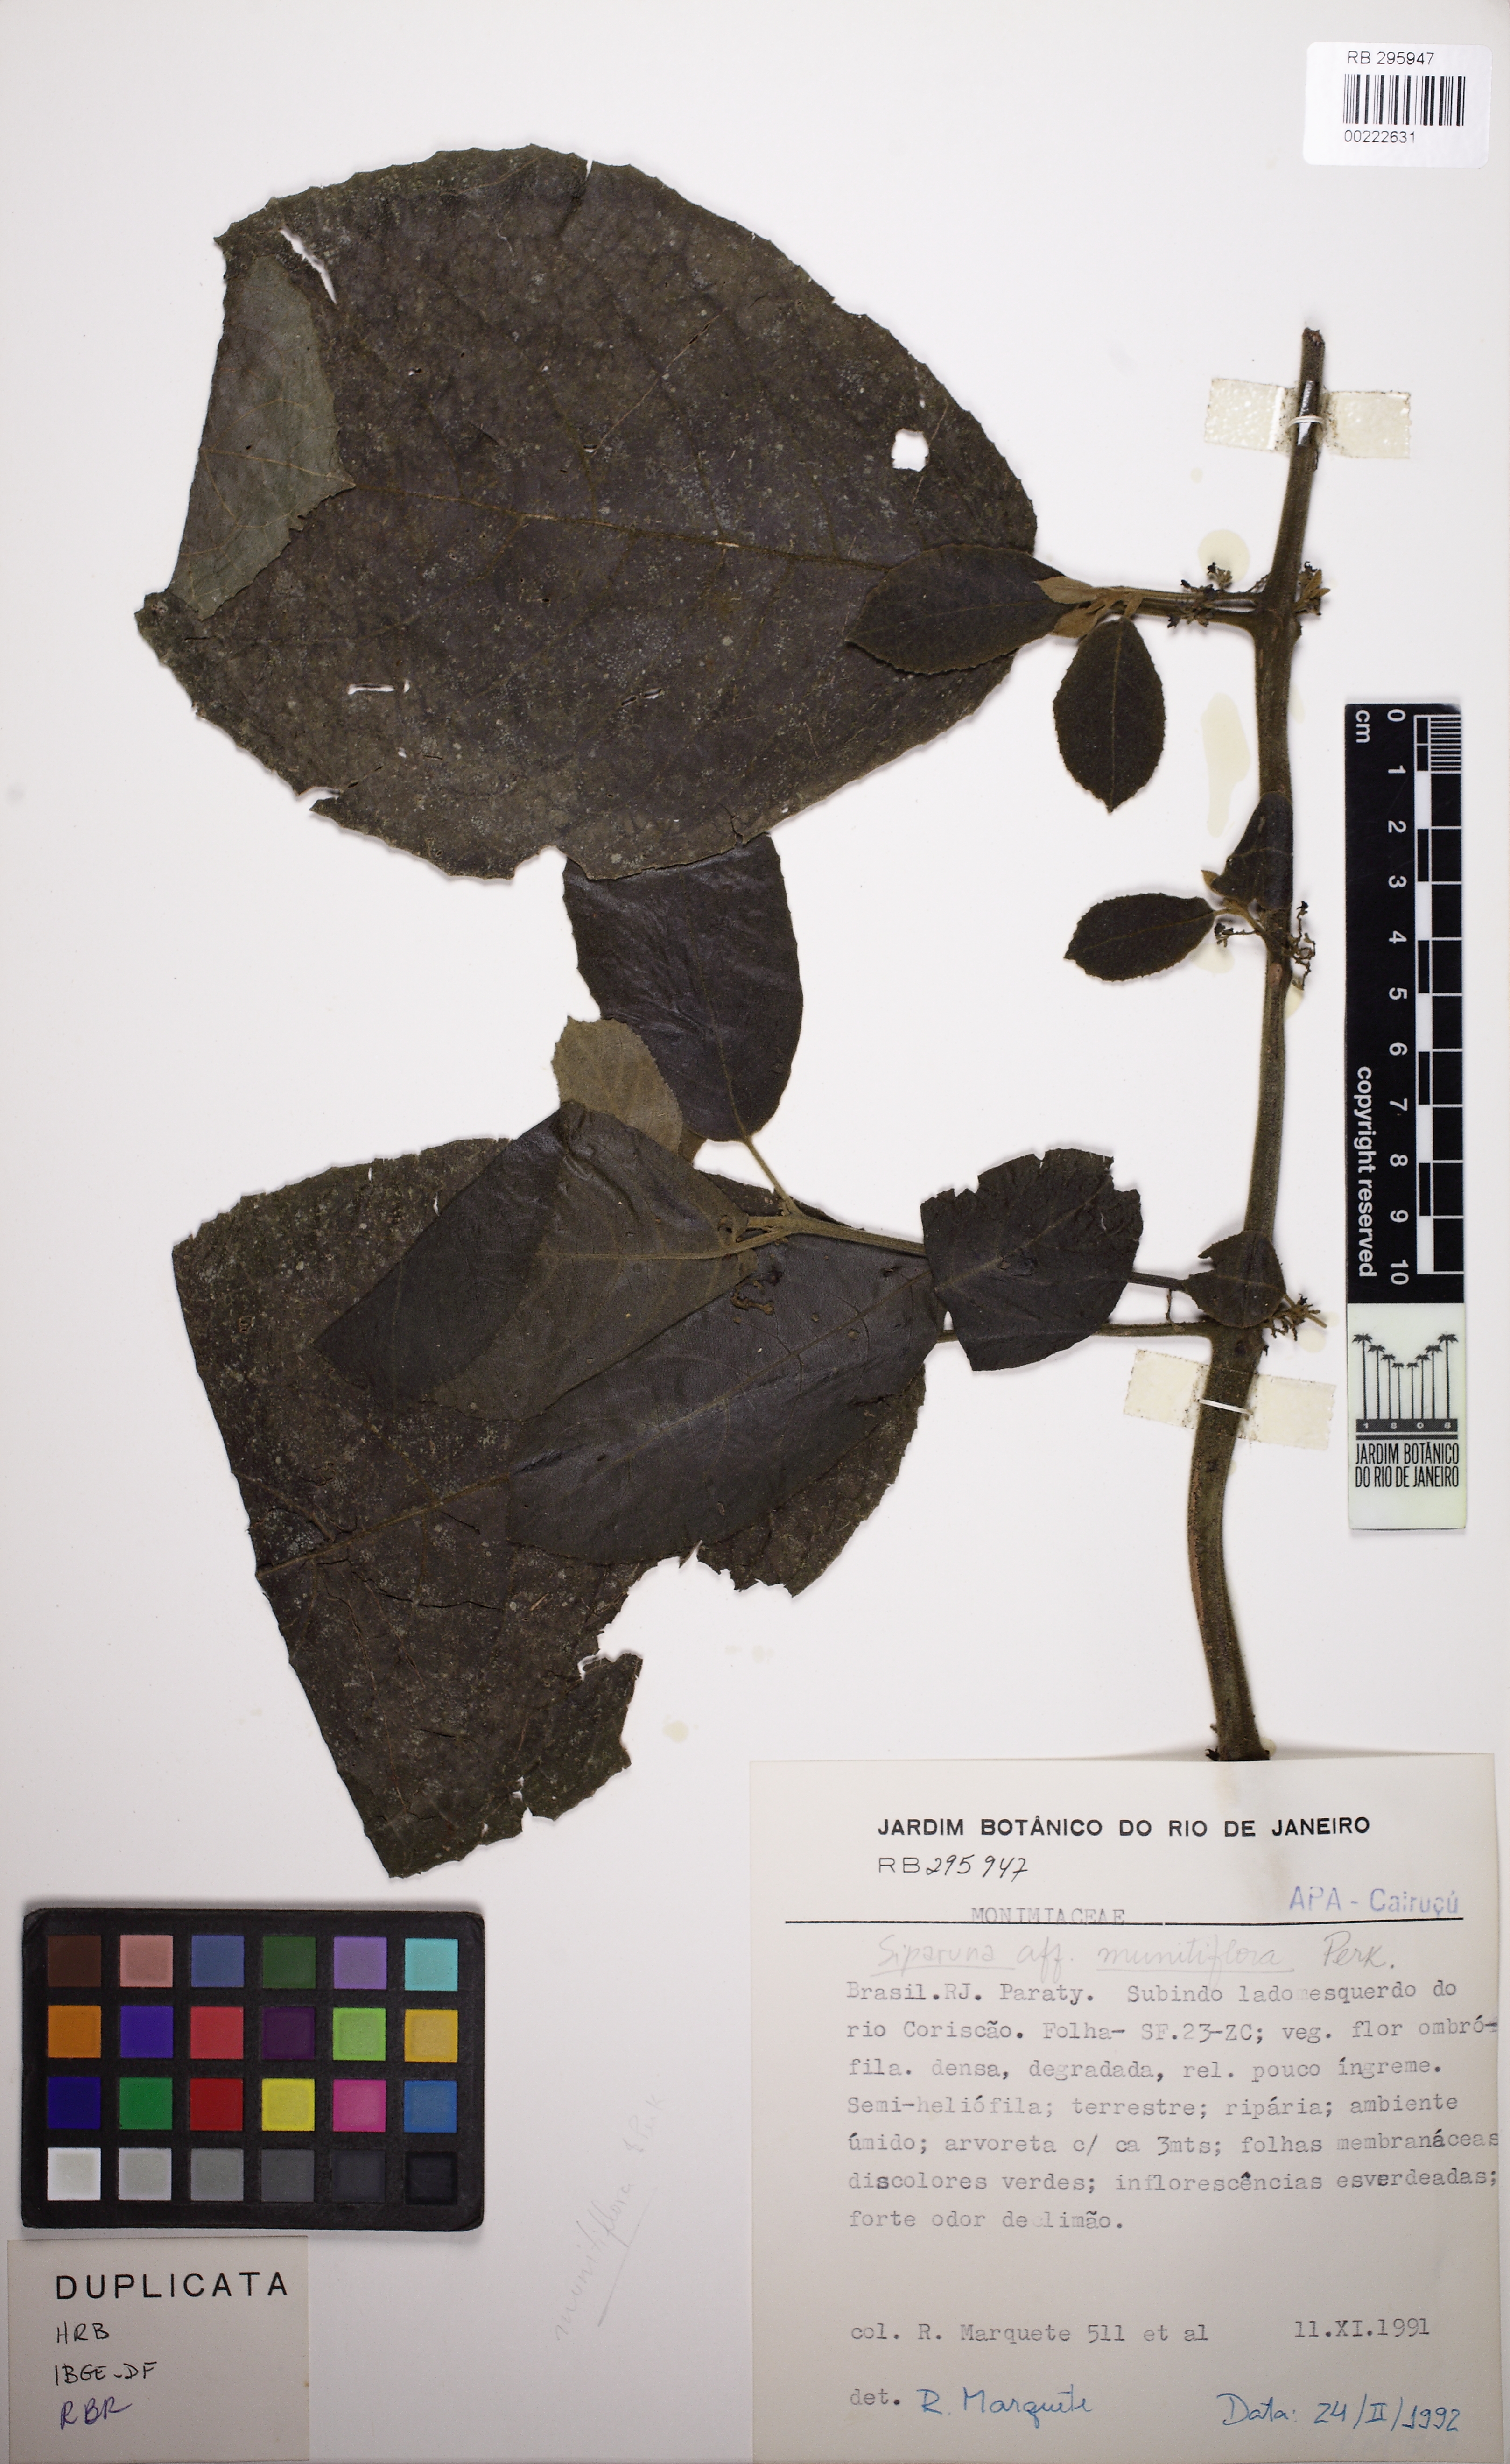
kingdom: Plantae
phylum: Tracheophyta
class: Magnoliopsida
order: Laurales
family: Siparunaceae
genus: Siparuna
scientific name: Siparuna brasiliensis
